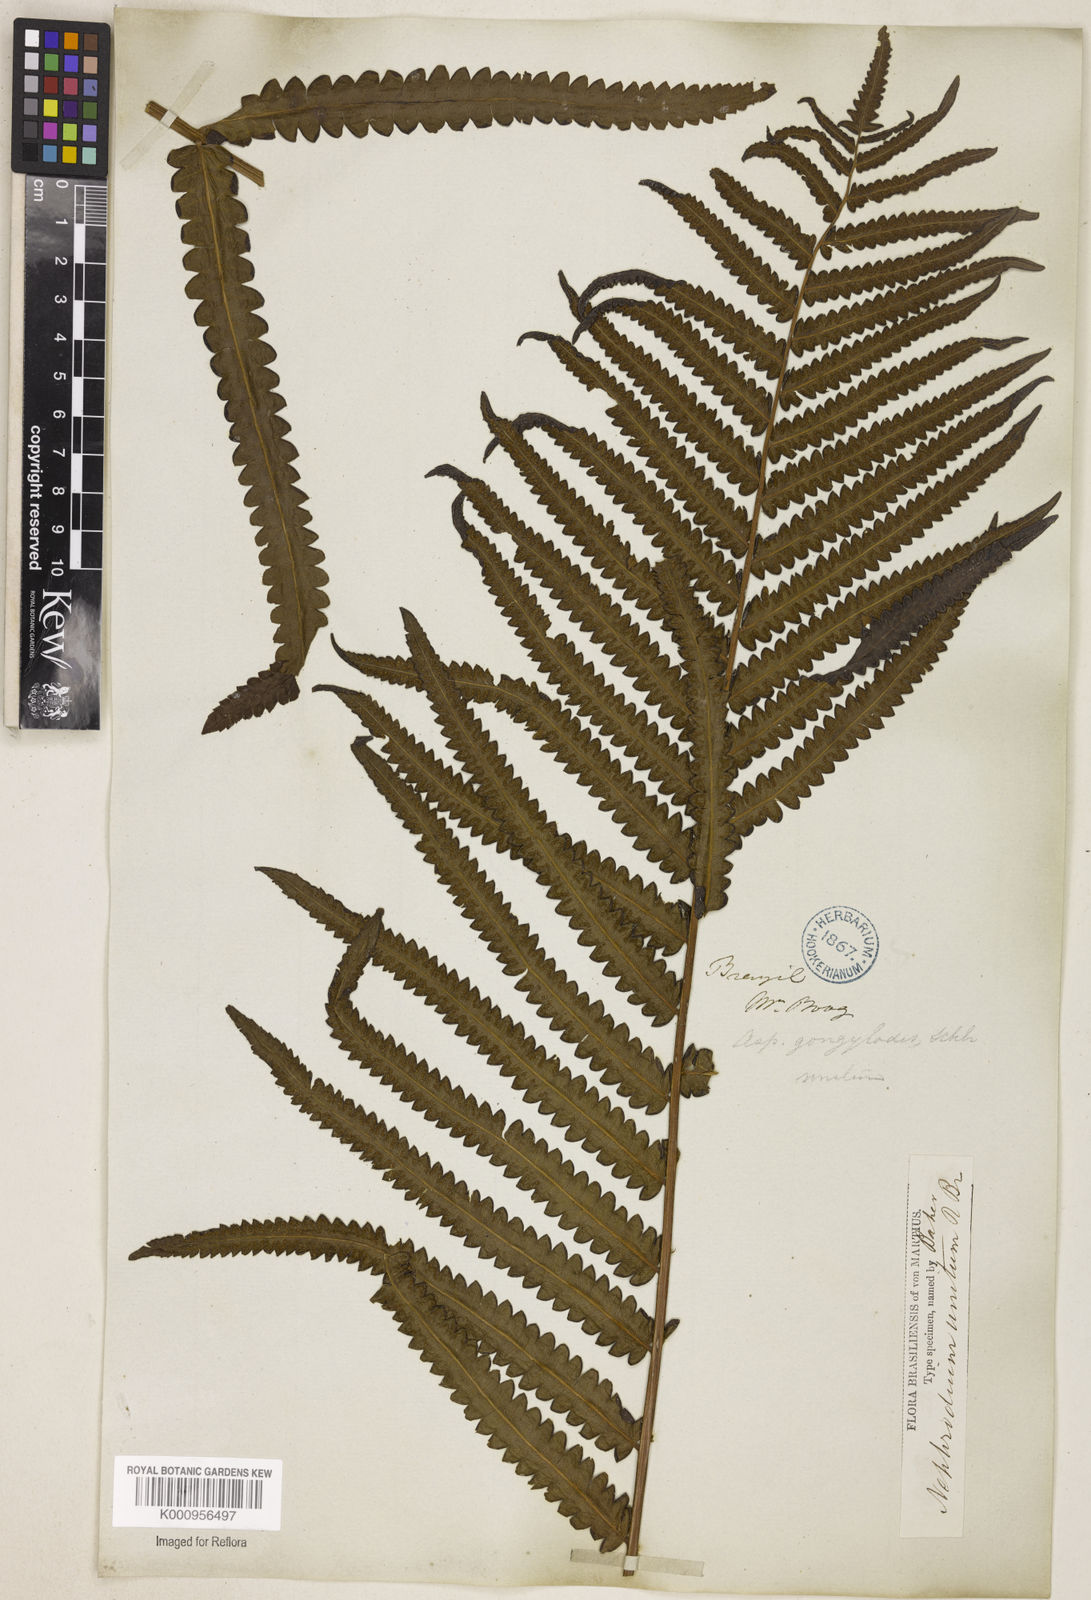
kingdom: Plantae
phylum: Tracheophyta
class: Polypodiopsida
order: Polypodiales
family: Thelypteridaceae
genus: Cyclosorus
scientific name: Cyclosorus interruptus
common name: Neke fern
